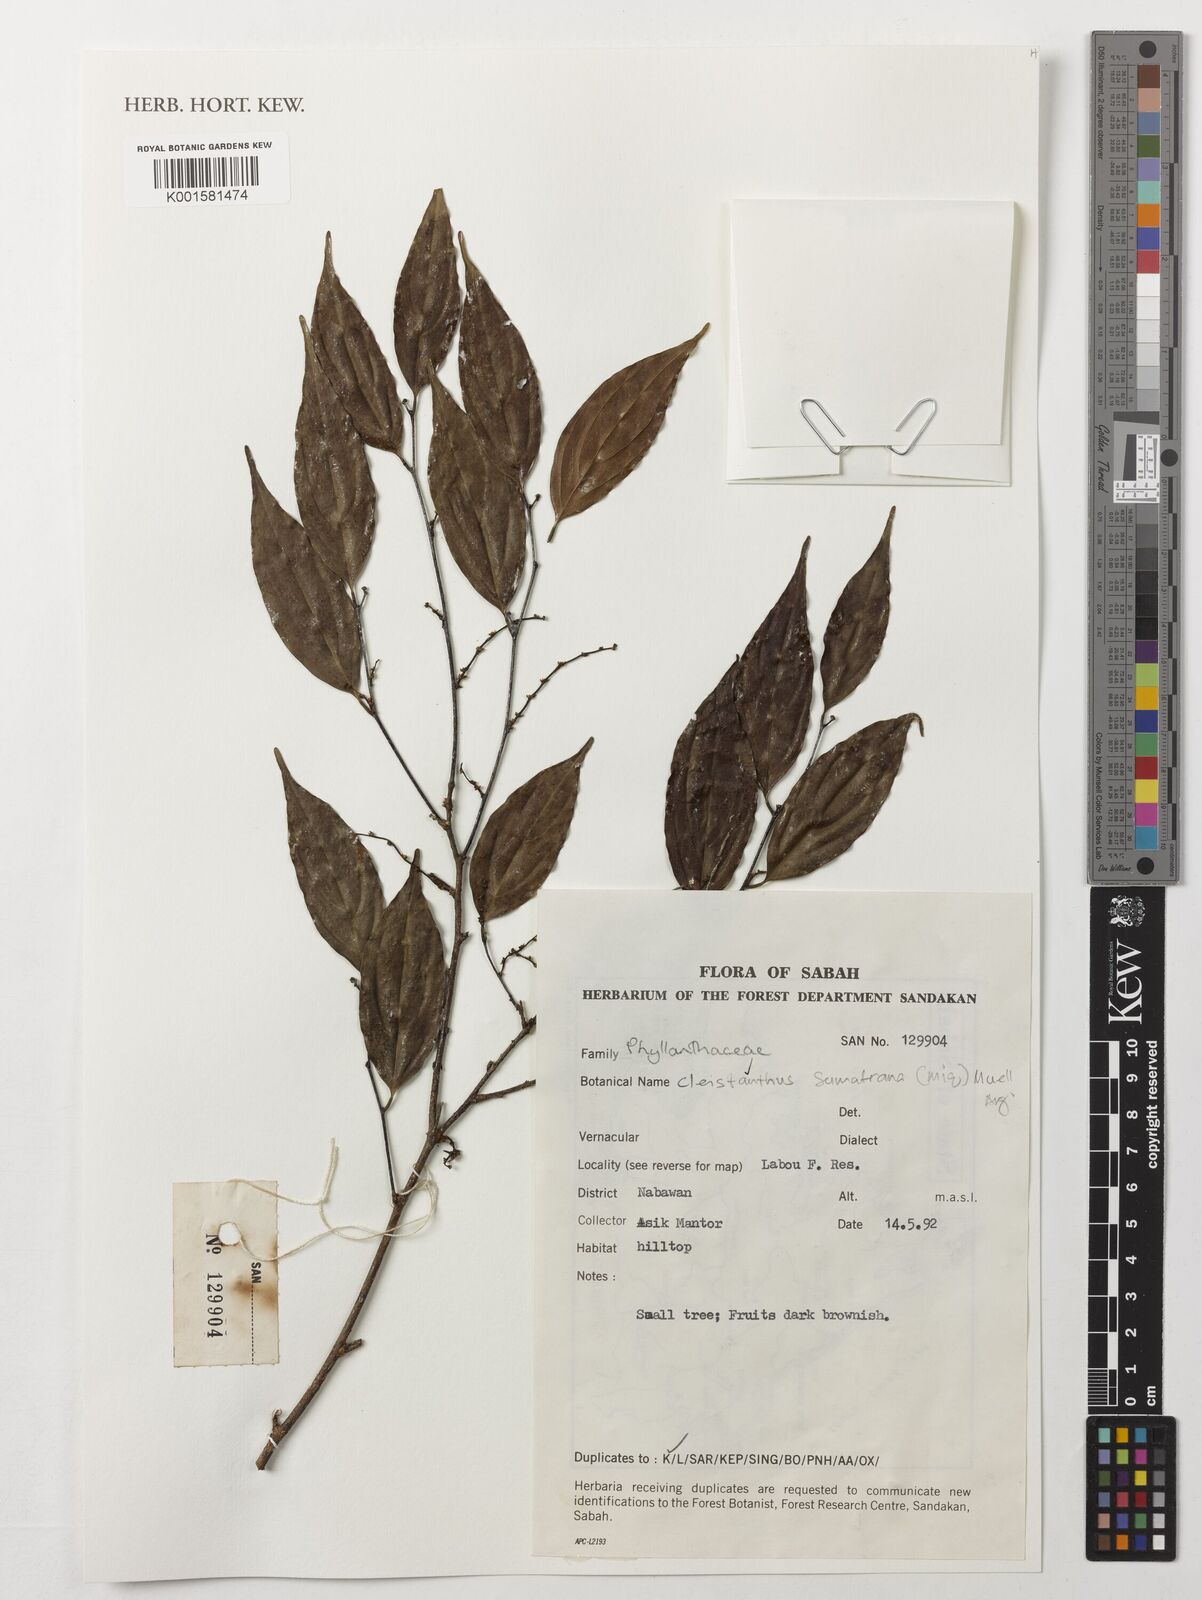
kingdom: Plantae
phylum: Tracheophyta
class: Magnoliopsida
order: Malpighiales
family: Phyllanthaceae
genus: Cleistanthus
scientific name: Cleistanthus sumatranus
